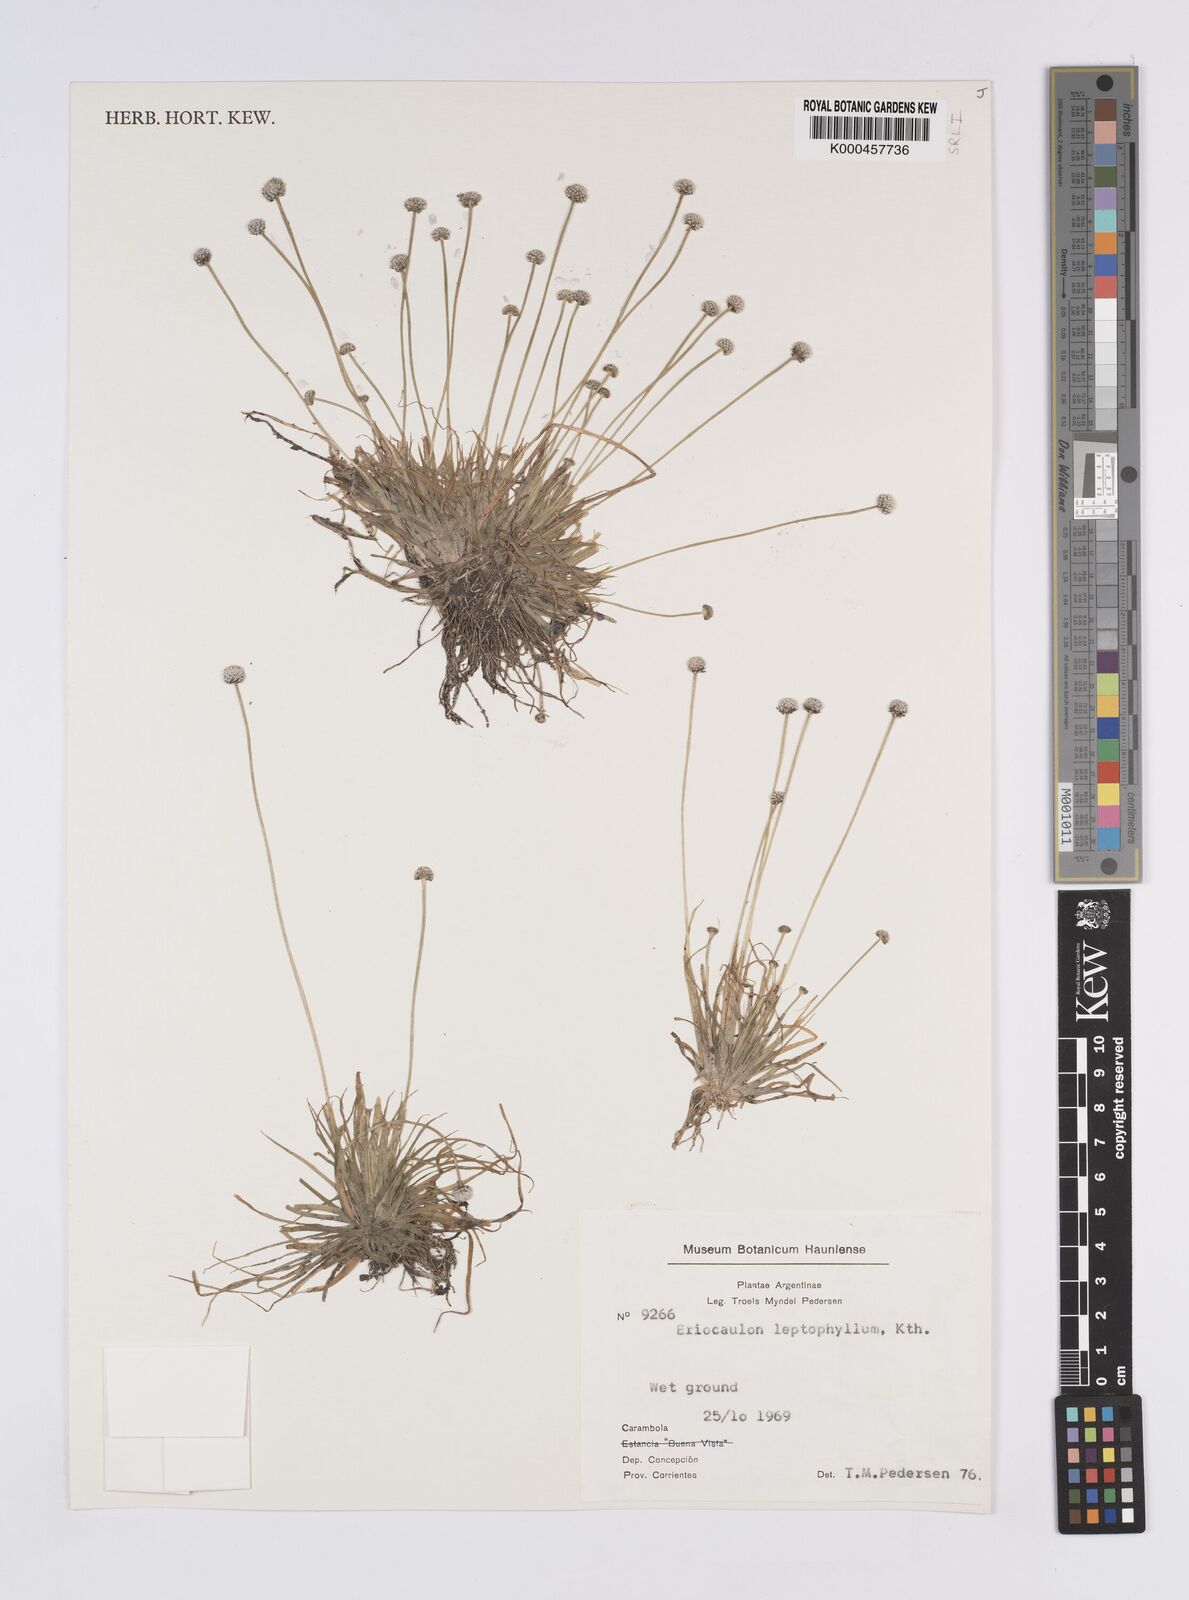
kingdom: Plantae
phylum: Tracheophyta
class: Liliopsida
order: Poales
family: Eriocaulaceae
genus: Eriocaulon
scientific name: Eriocaulon leptophyllum
